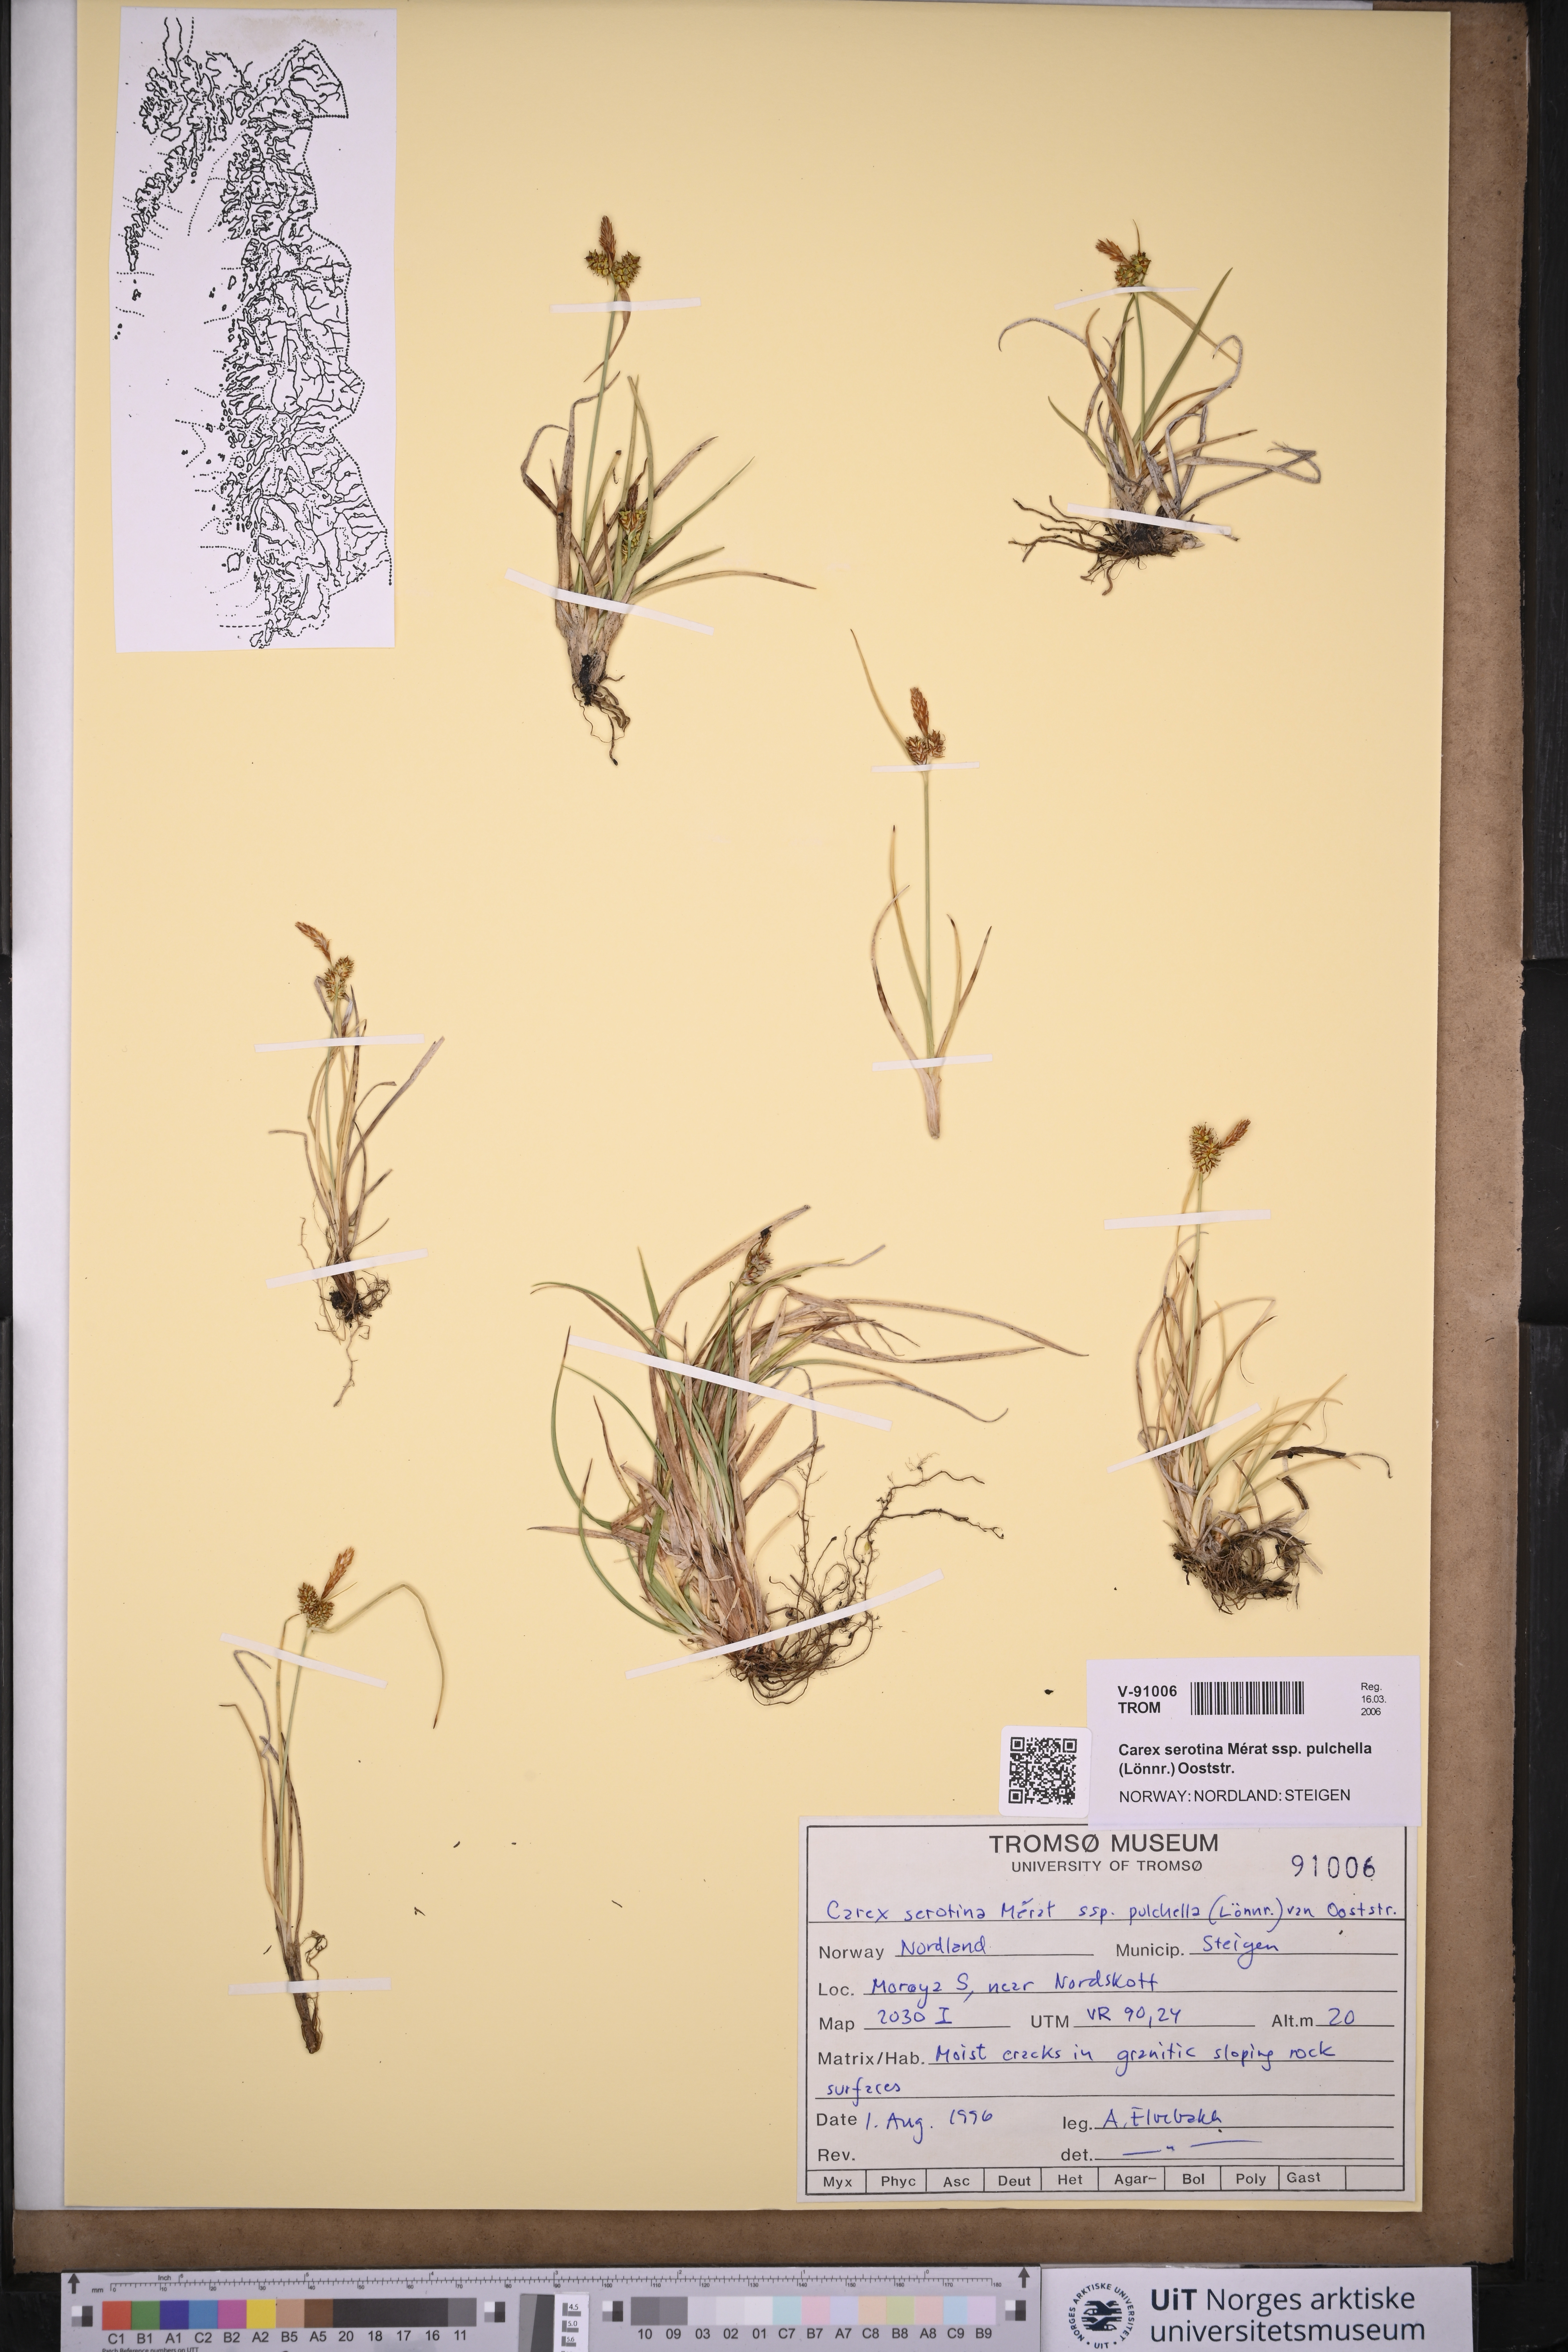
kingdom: Plantae
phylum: Tracheophyta
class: Liliopsida
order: Poales
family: Cyperaceae
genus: Carex
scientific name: Carex oederi
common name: Common & small-fruited yellow-sedge
